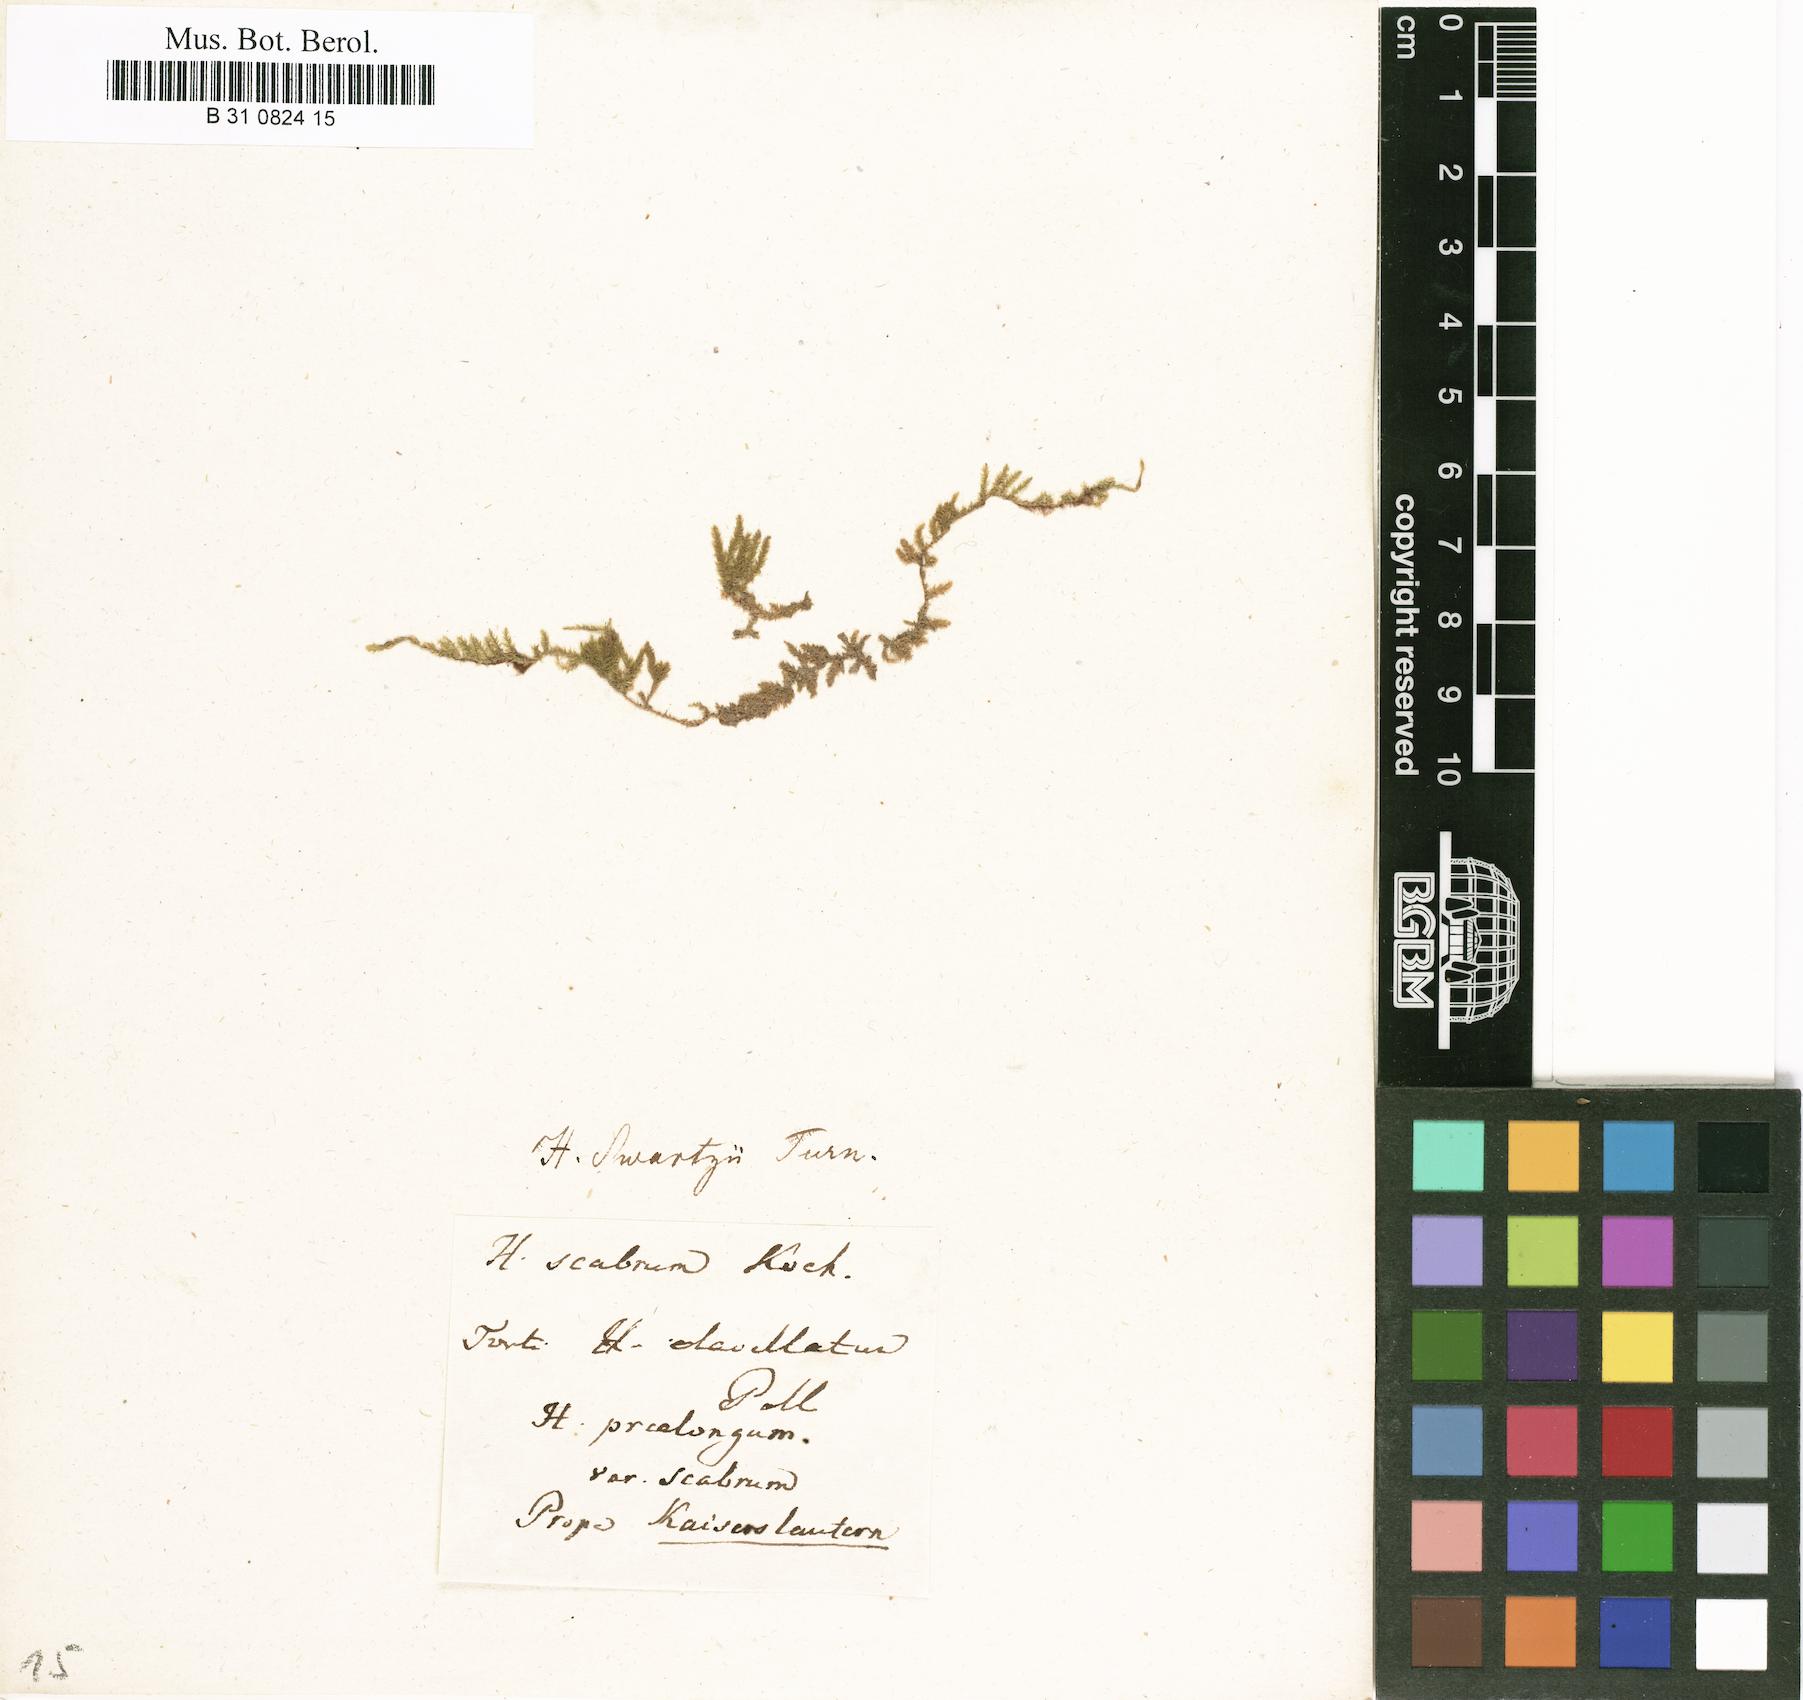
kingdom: Plantae
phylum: Bryophyta
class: Bryopsida
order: Hypnales
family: Brachytheciaceae
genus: Kindbergia
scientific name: Kindbergia praelonga
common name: Slender beaked moss
